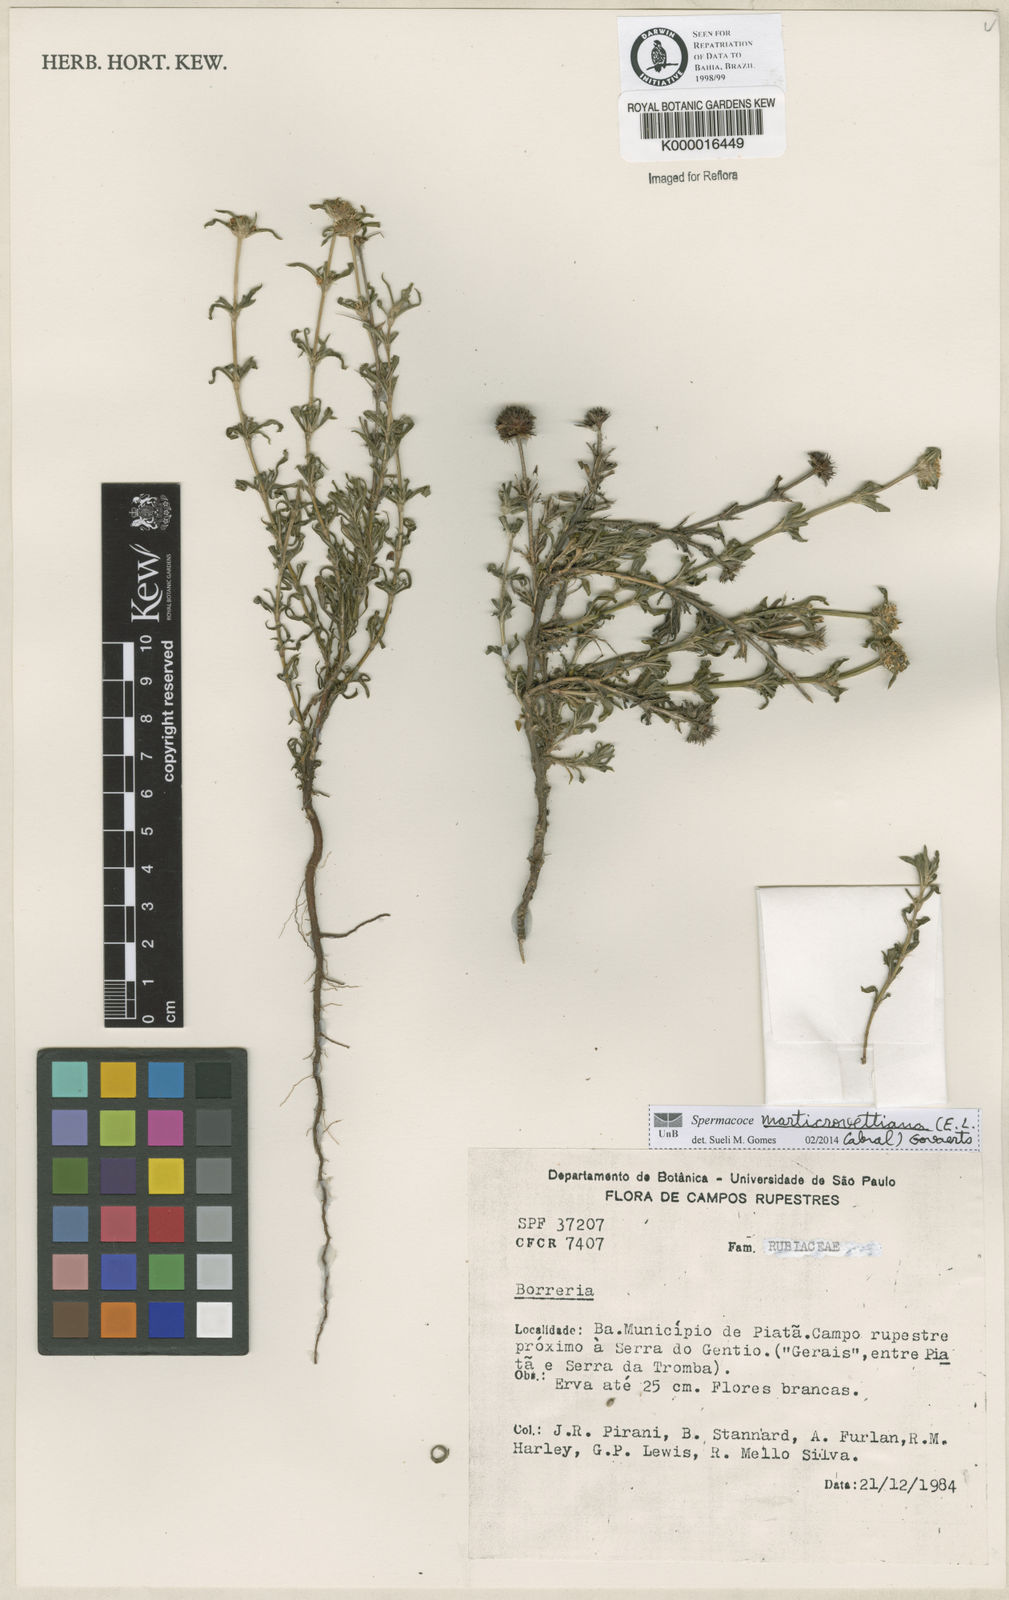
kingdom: Plantae
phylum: Tracheophyta
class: Magnoliopsida
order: Gentianales
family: Rubiaceae
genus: Spermacoce
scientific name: Spermacoce
